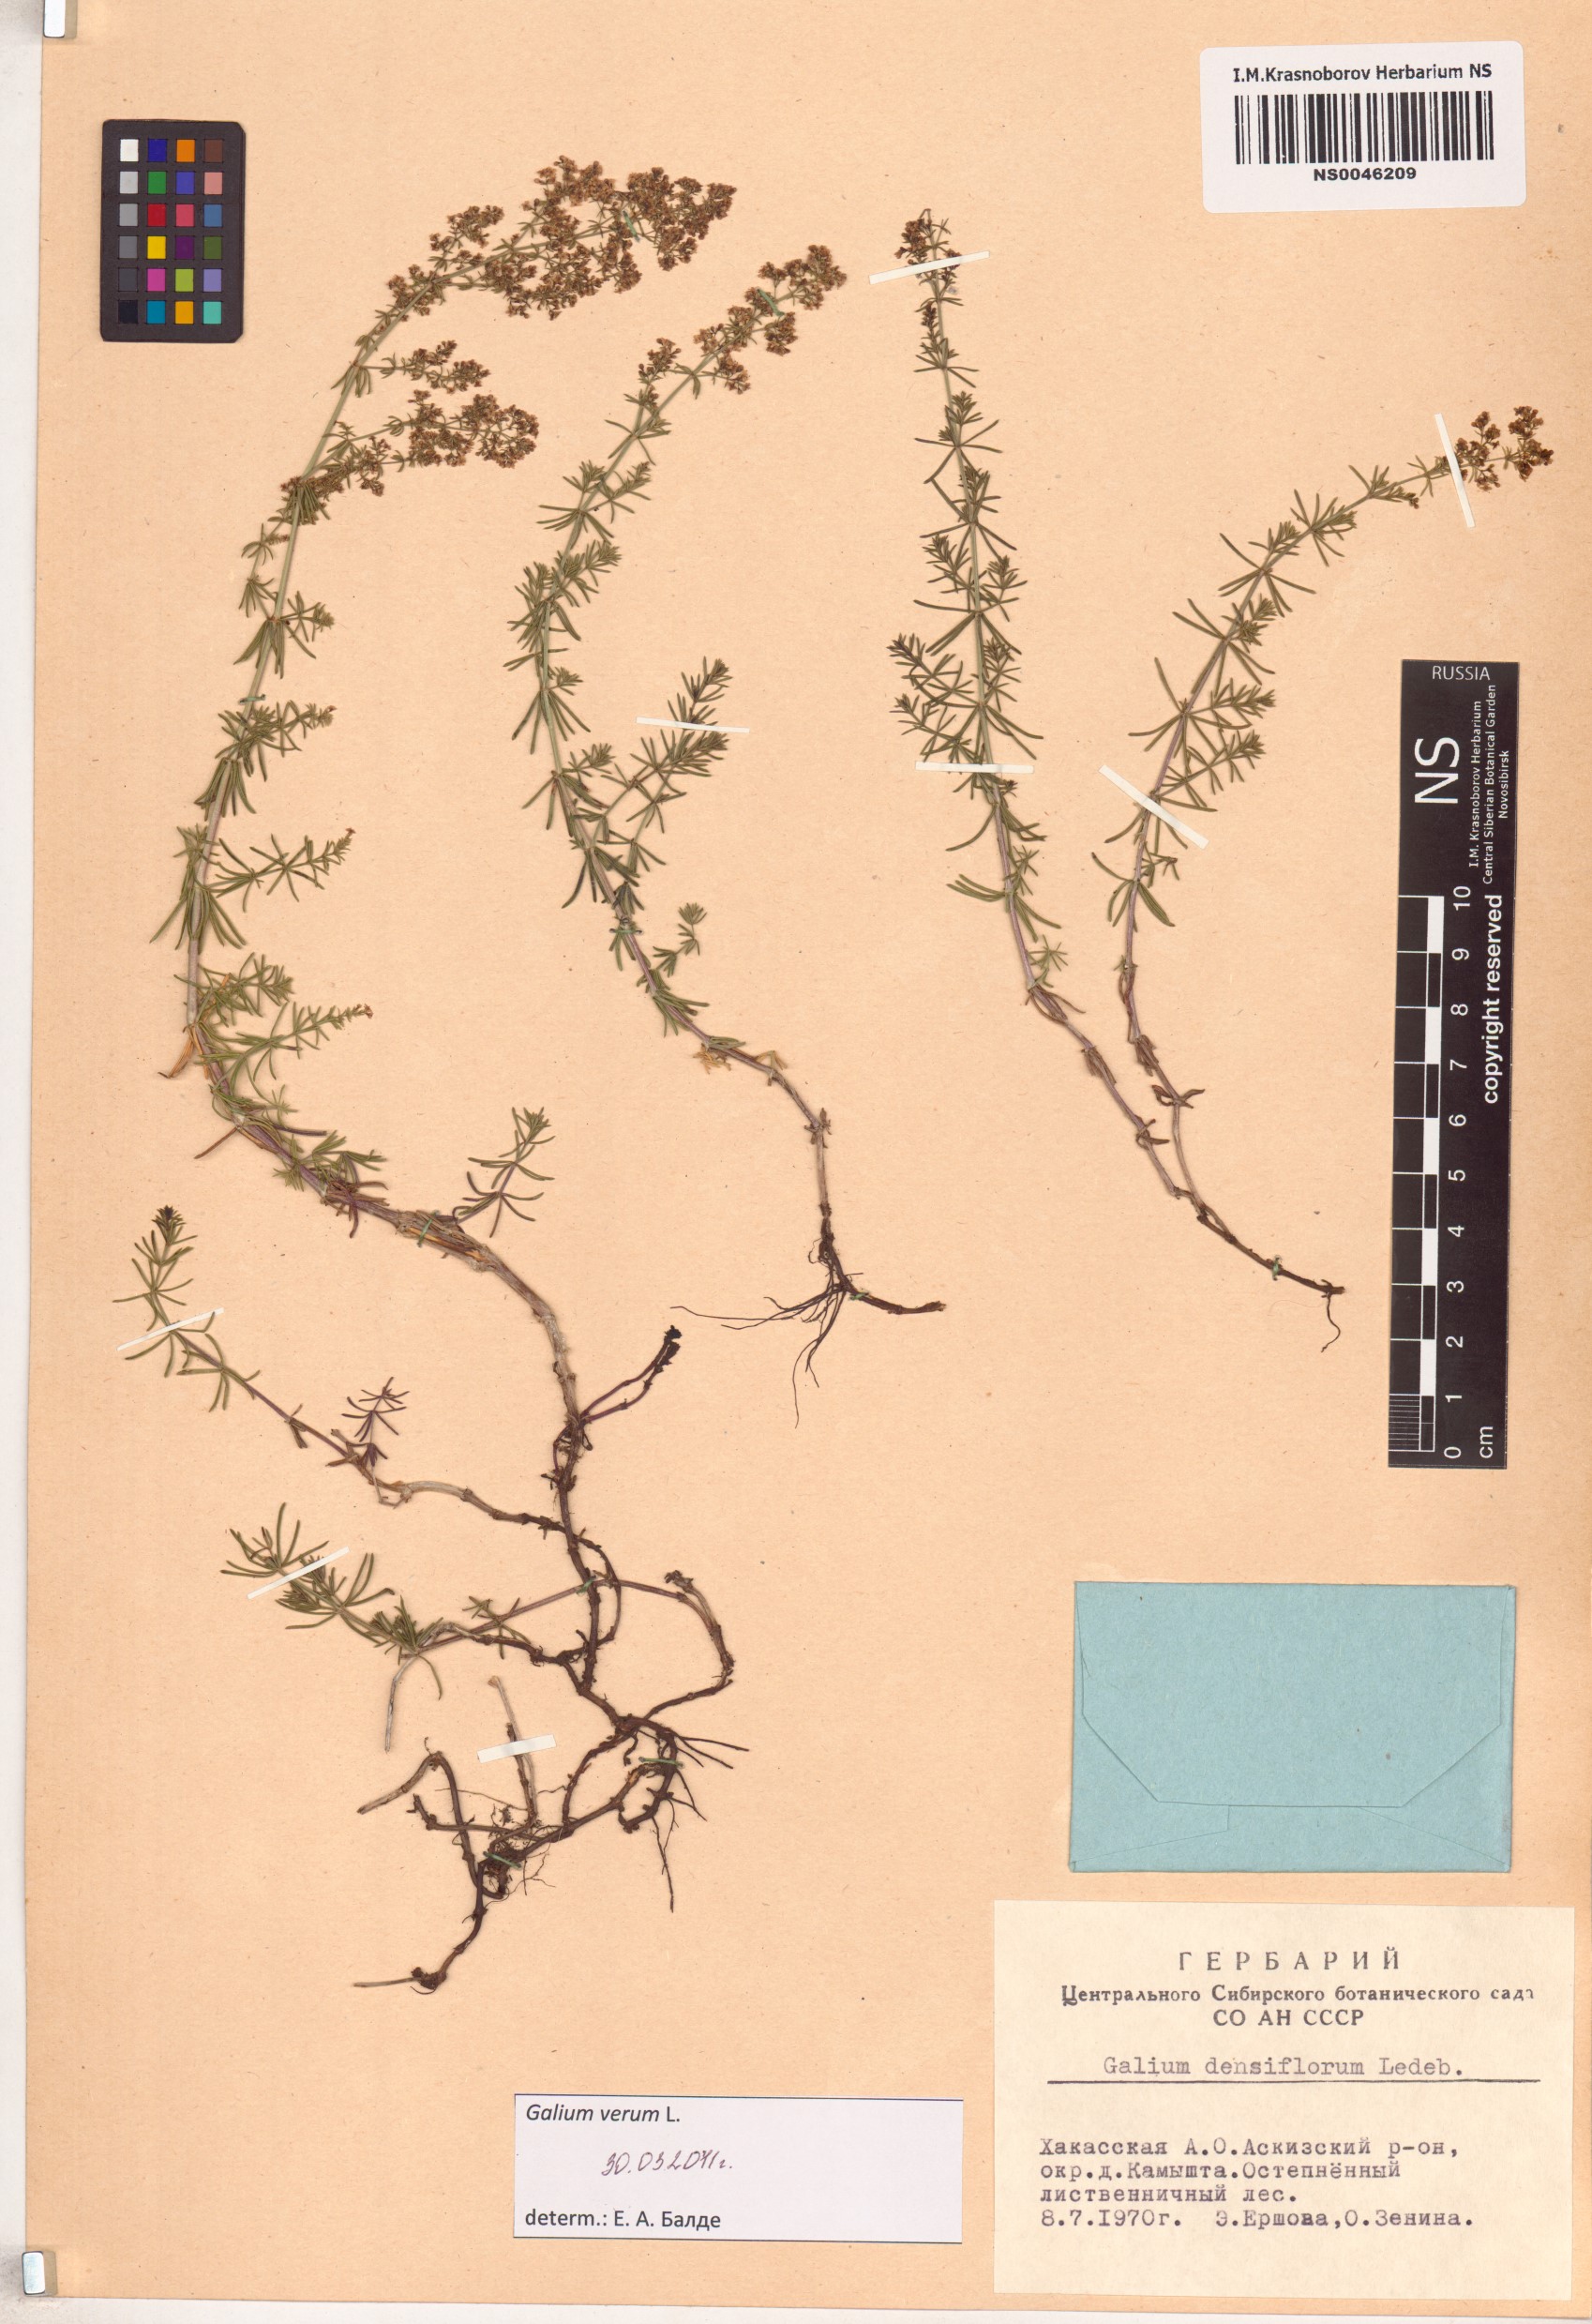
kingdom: Plantae
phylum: Tracheophyta
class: Magnoliopsida
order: Gentianales
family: Rubiaceae
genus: Galium
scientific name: Galium verum
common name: Lady's bedstraw
